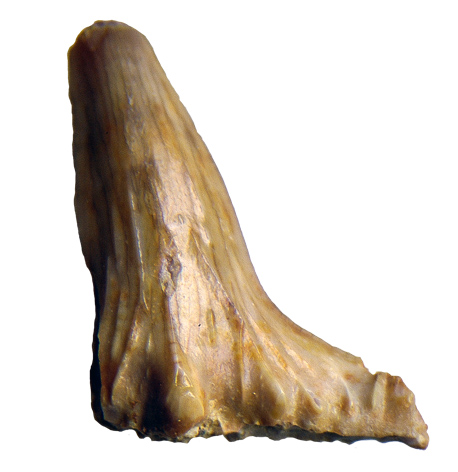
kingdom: Animalia
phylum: Chordata
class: Elasmobranchii
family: Hybodontidae
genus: Hybodus
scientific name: Hybodus
